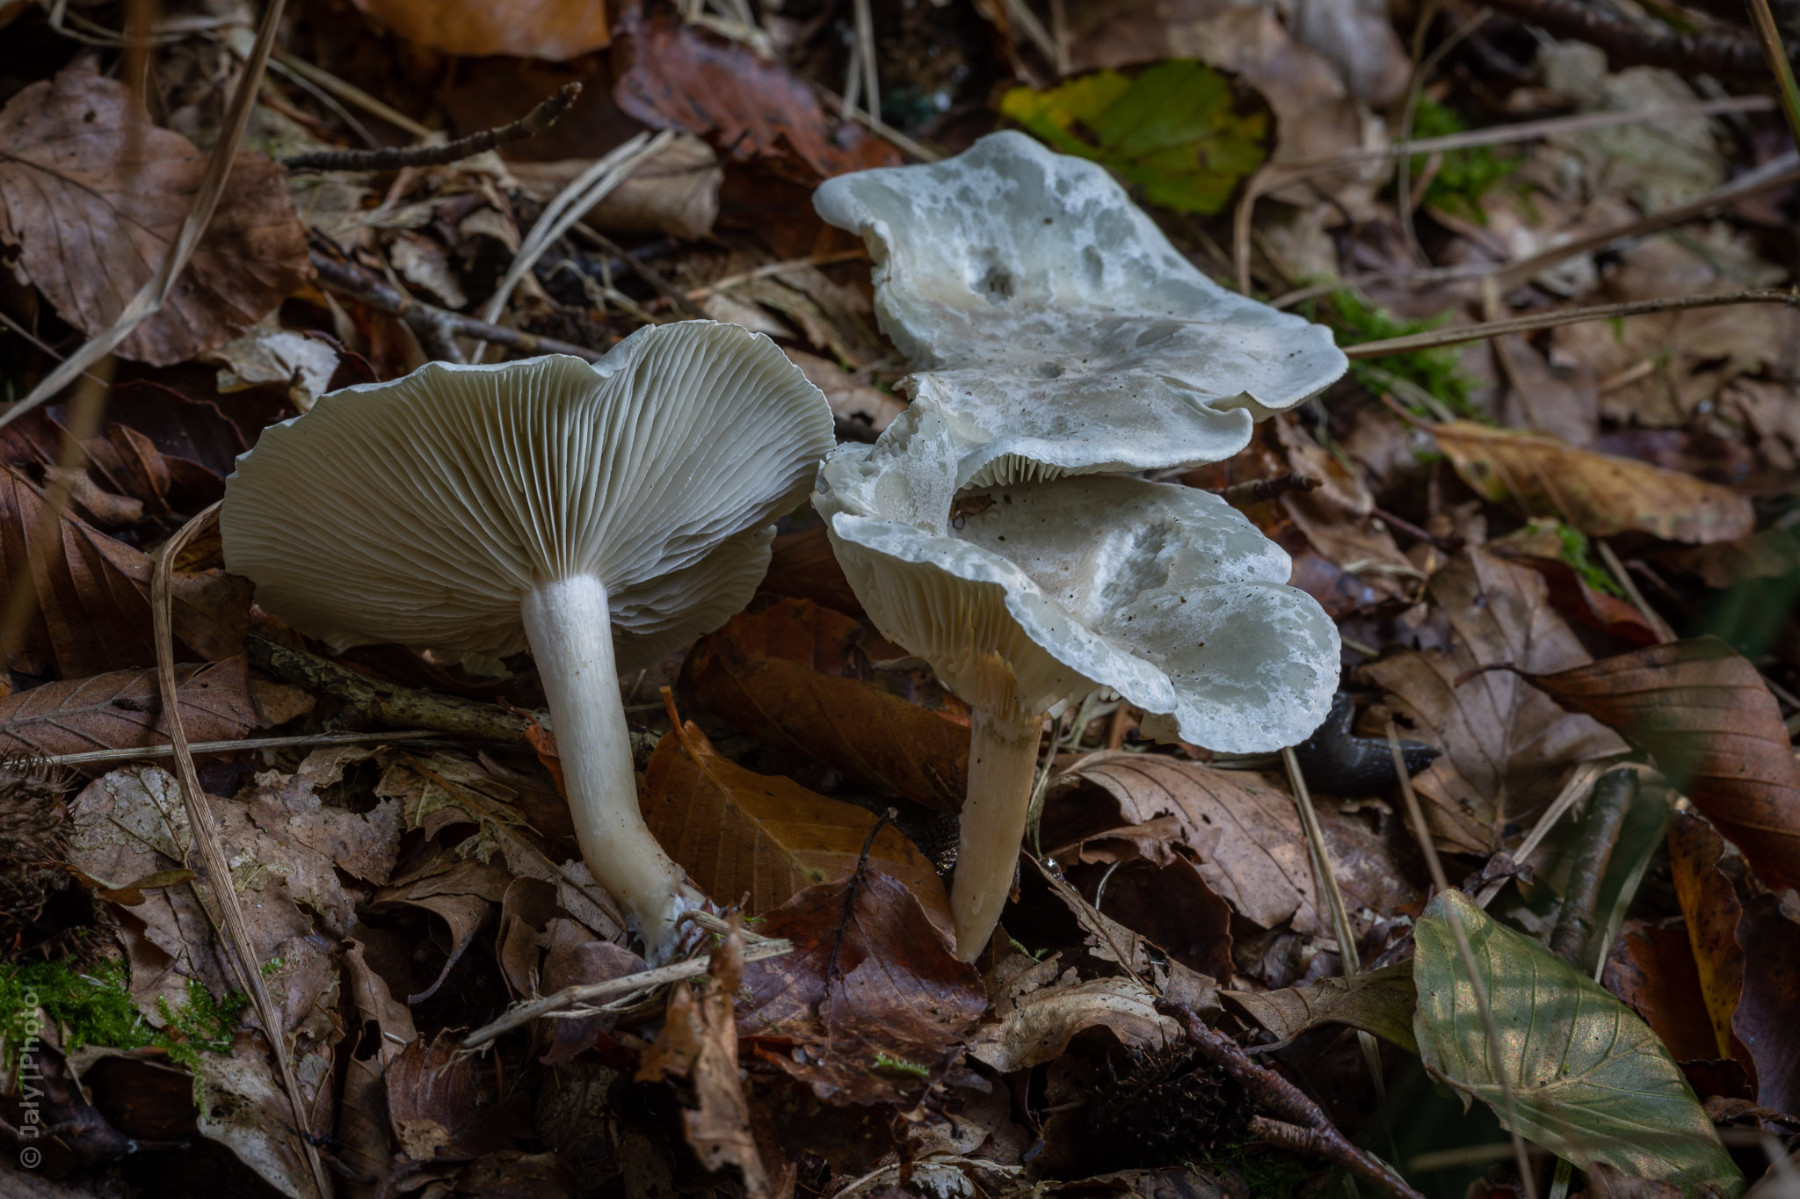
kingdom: Fungi
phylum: Basidiomycota
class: Agaricomycetes
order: Agaricales
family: Tricholomataceae
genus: Clitocybe
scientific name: Clitocybe odora
